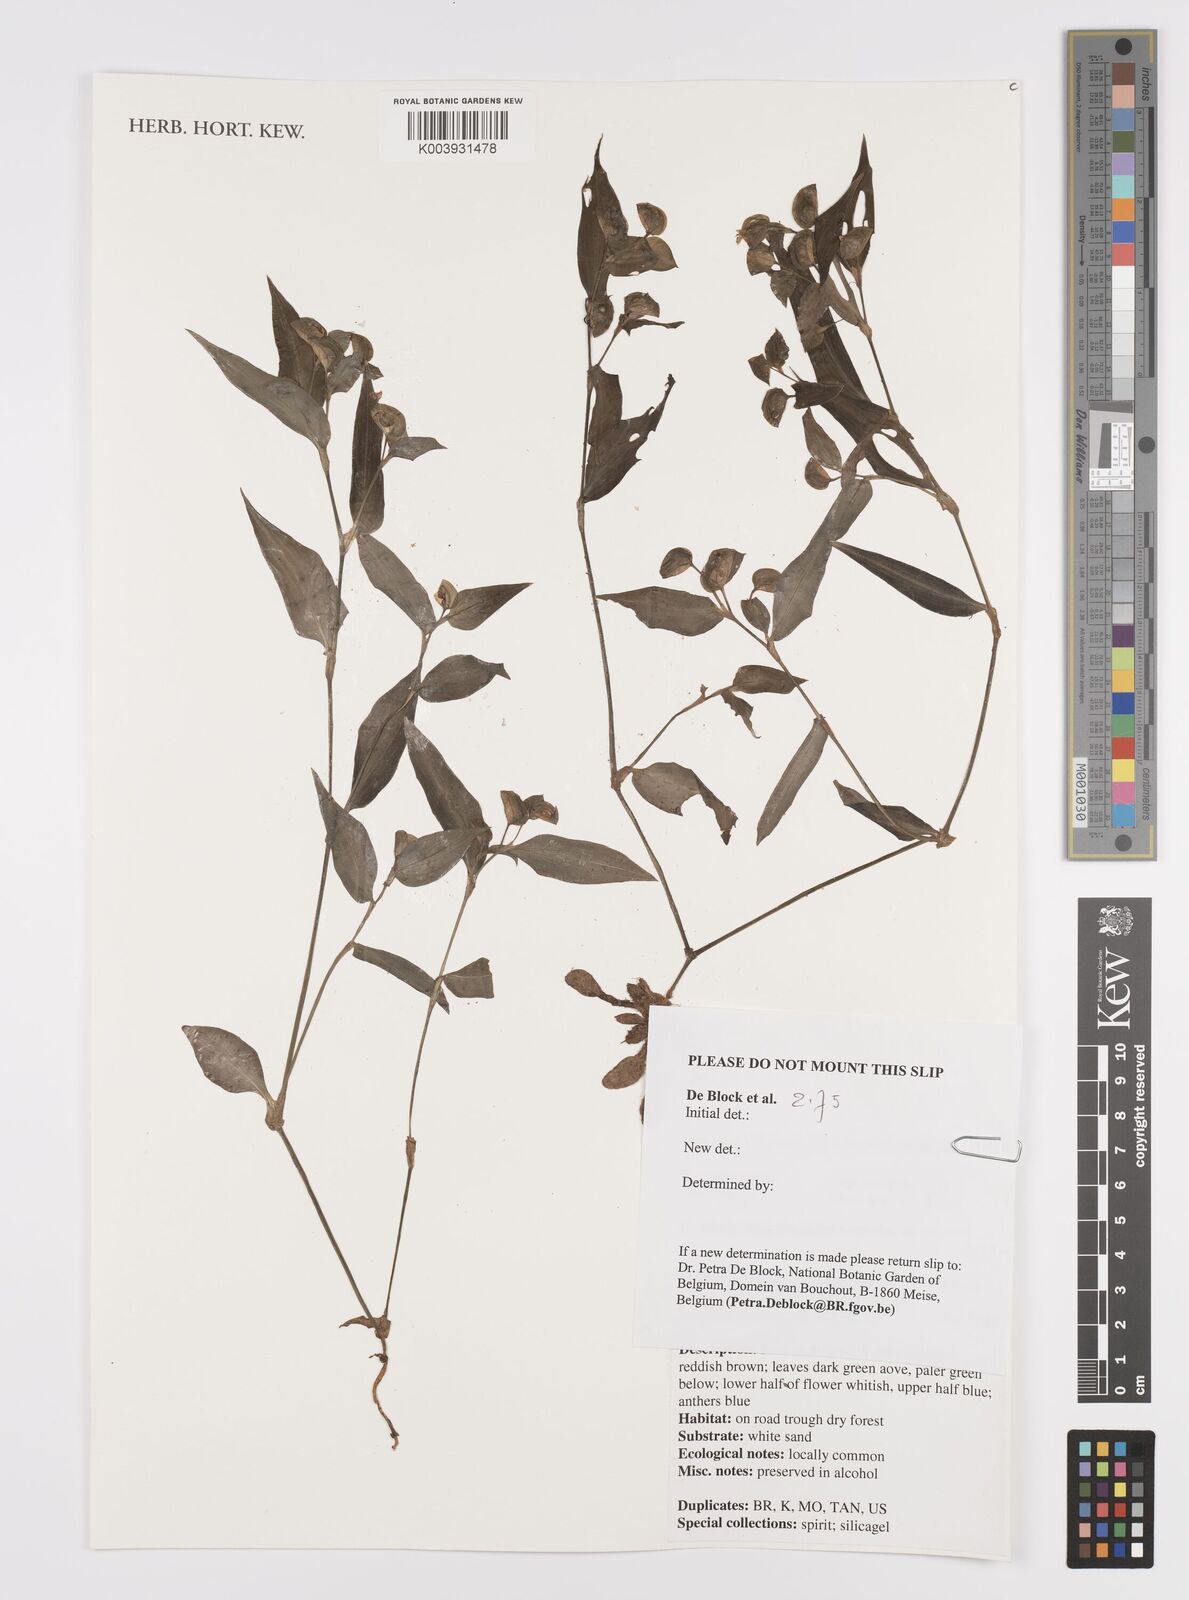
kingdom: Plantae
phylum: Tracheophyta
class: Liliopsida
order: Commelinales
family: Commelinaceae
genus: Commelina
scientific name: Commelina
